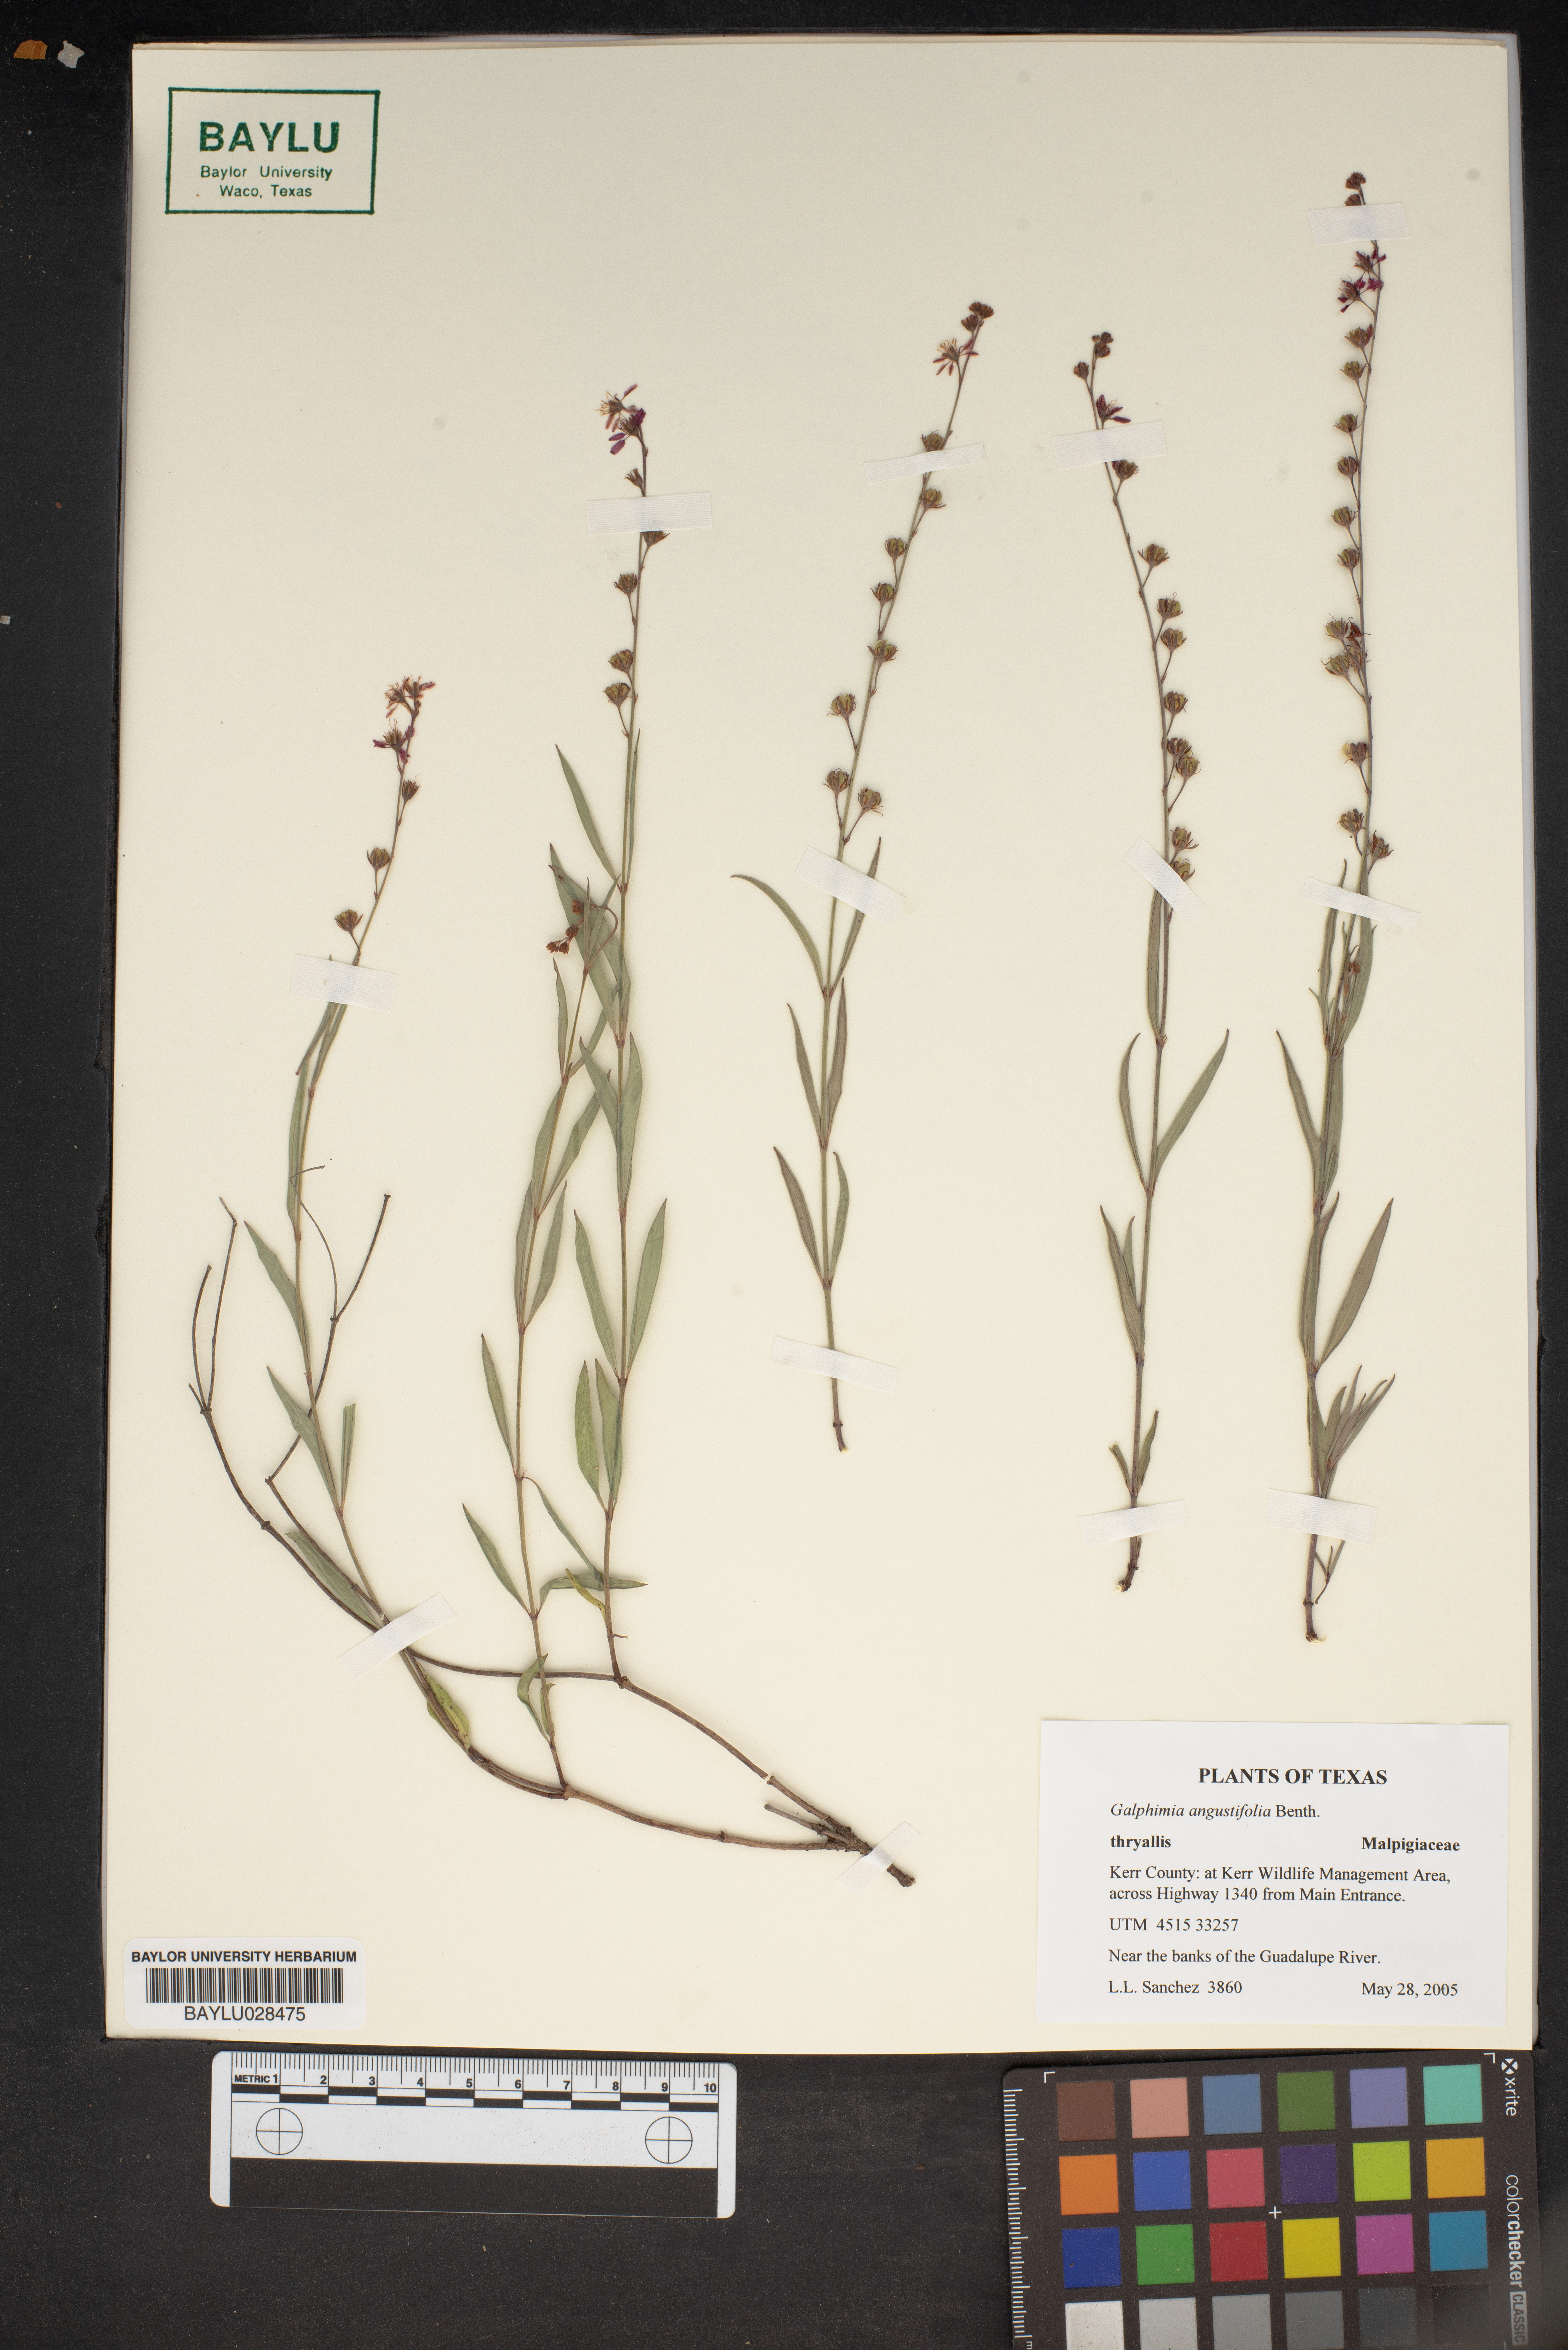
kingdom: Plantae
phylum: Tracheophyta
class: Magnoliopsida
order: Malpighiales
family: Malpighiaceae
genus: Galphimia
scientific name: Galphimia angustifolia
